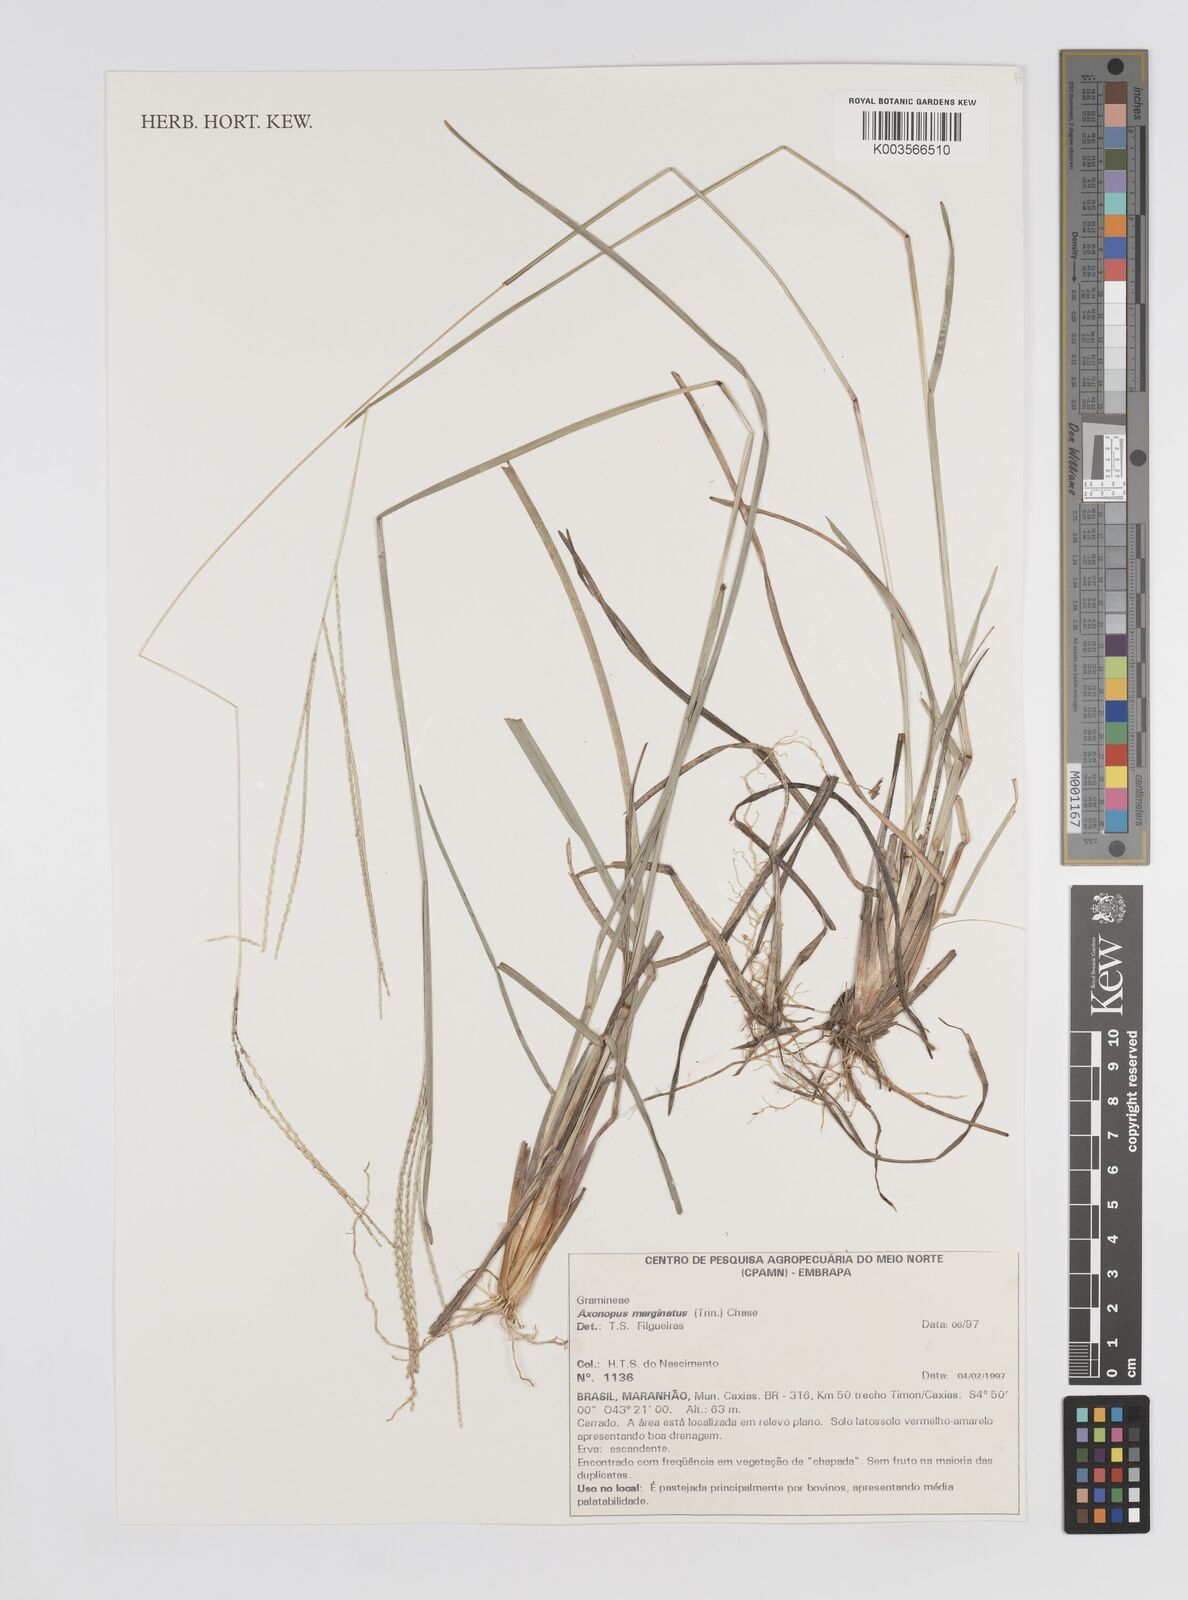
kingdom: Plantae
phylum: Tracheophyta
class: Liliopsida
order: Poales
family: Poaceae
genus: Axonopus
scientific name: Axonopus marginatus
